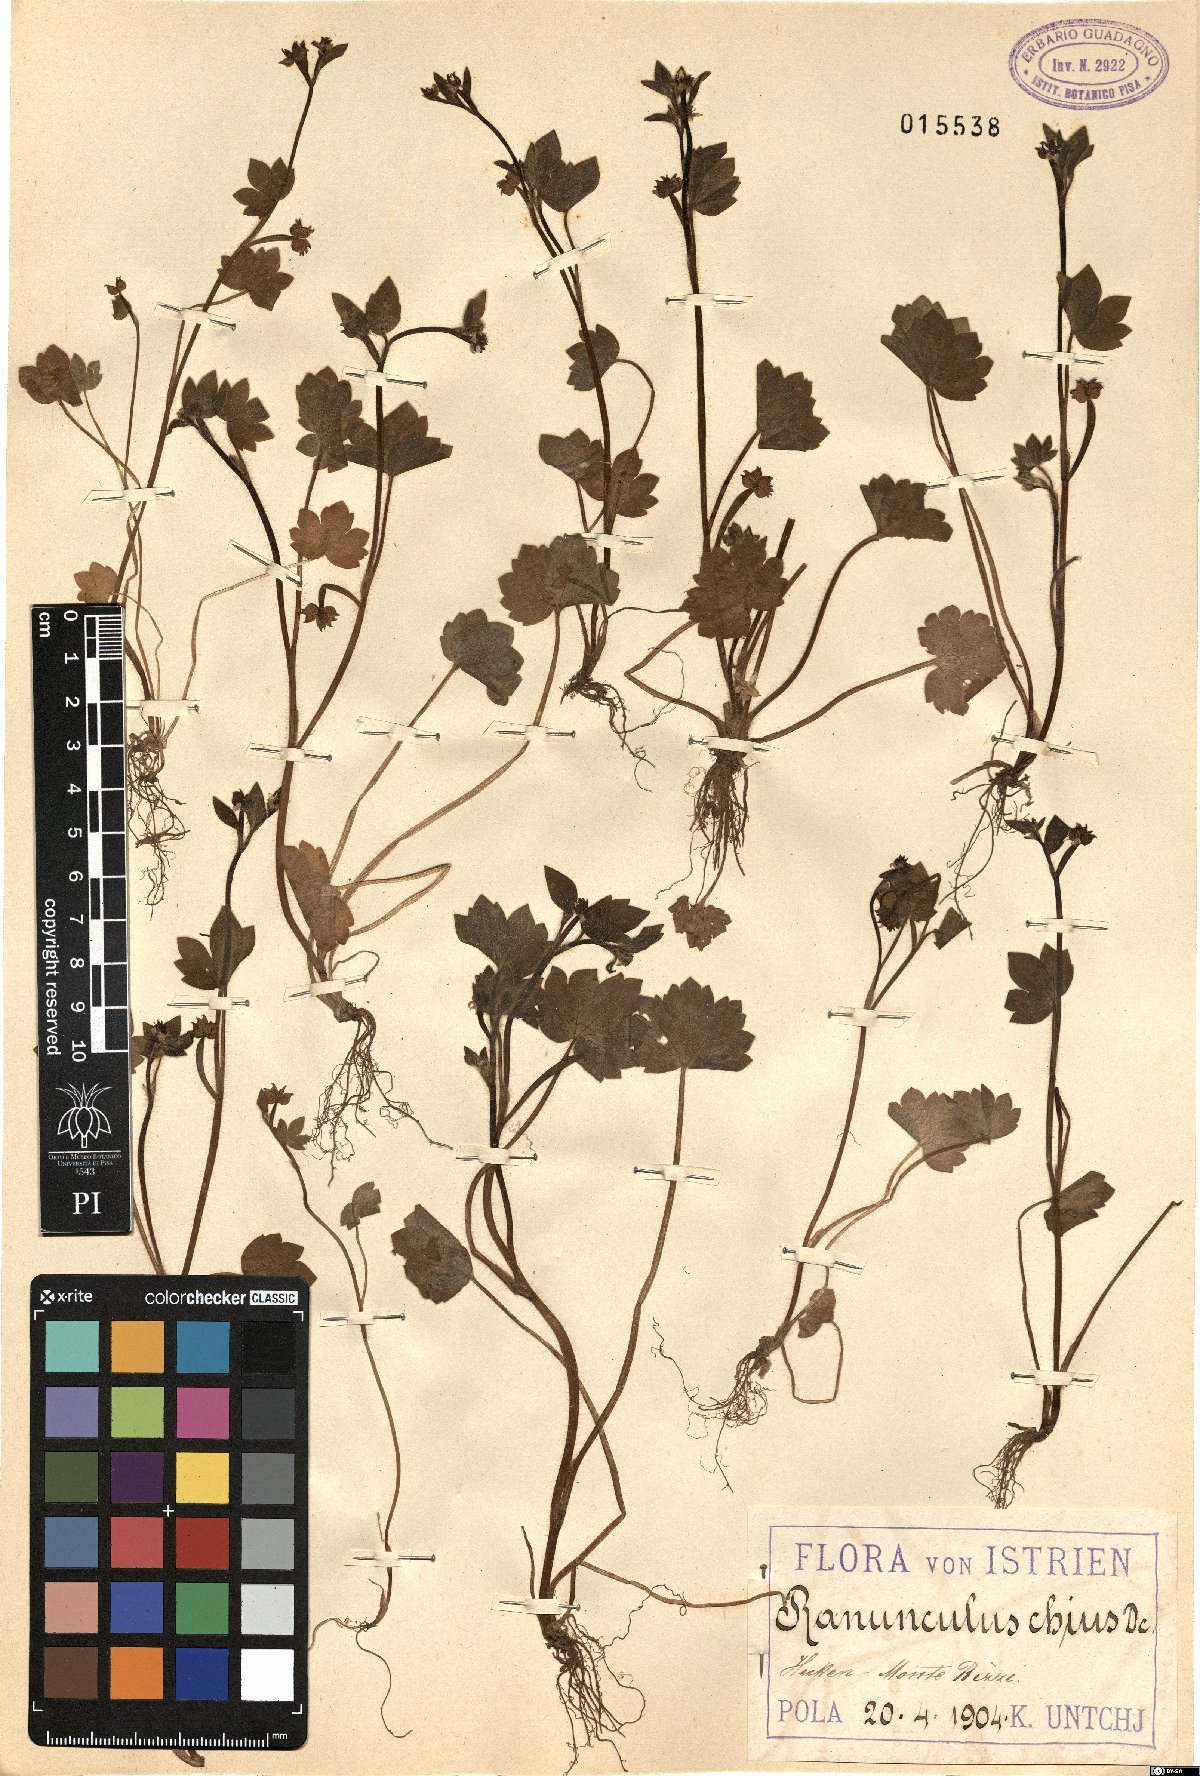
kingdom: Plantae
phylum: Tracheophyta
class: Magnoliopsida
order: Ranunculales
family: Ranunculaceae
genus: Ranunculus
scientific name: Ranunculus chius
